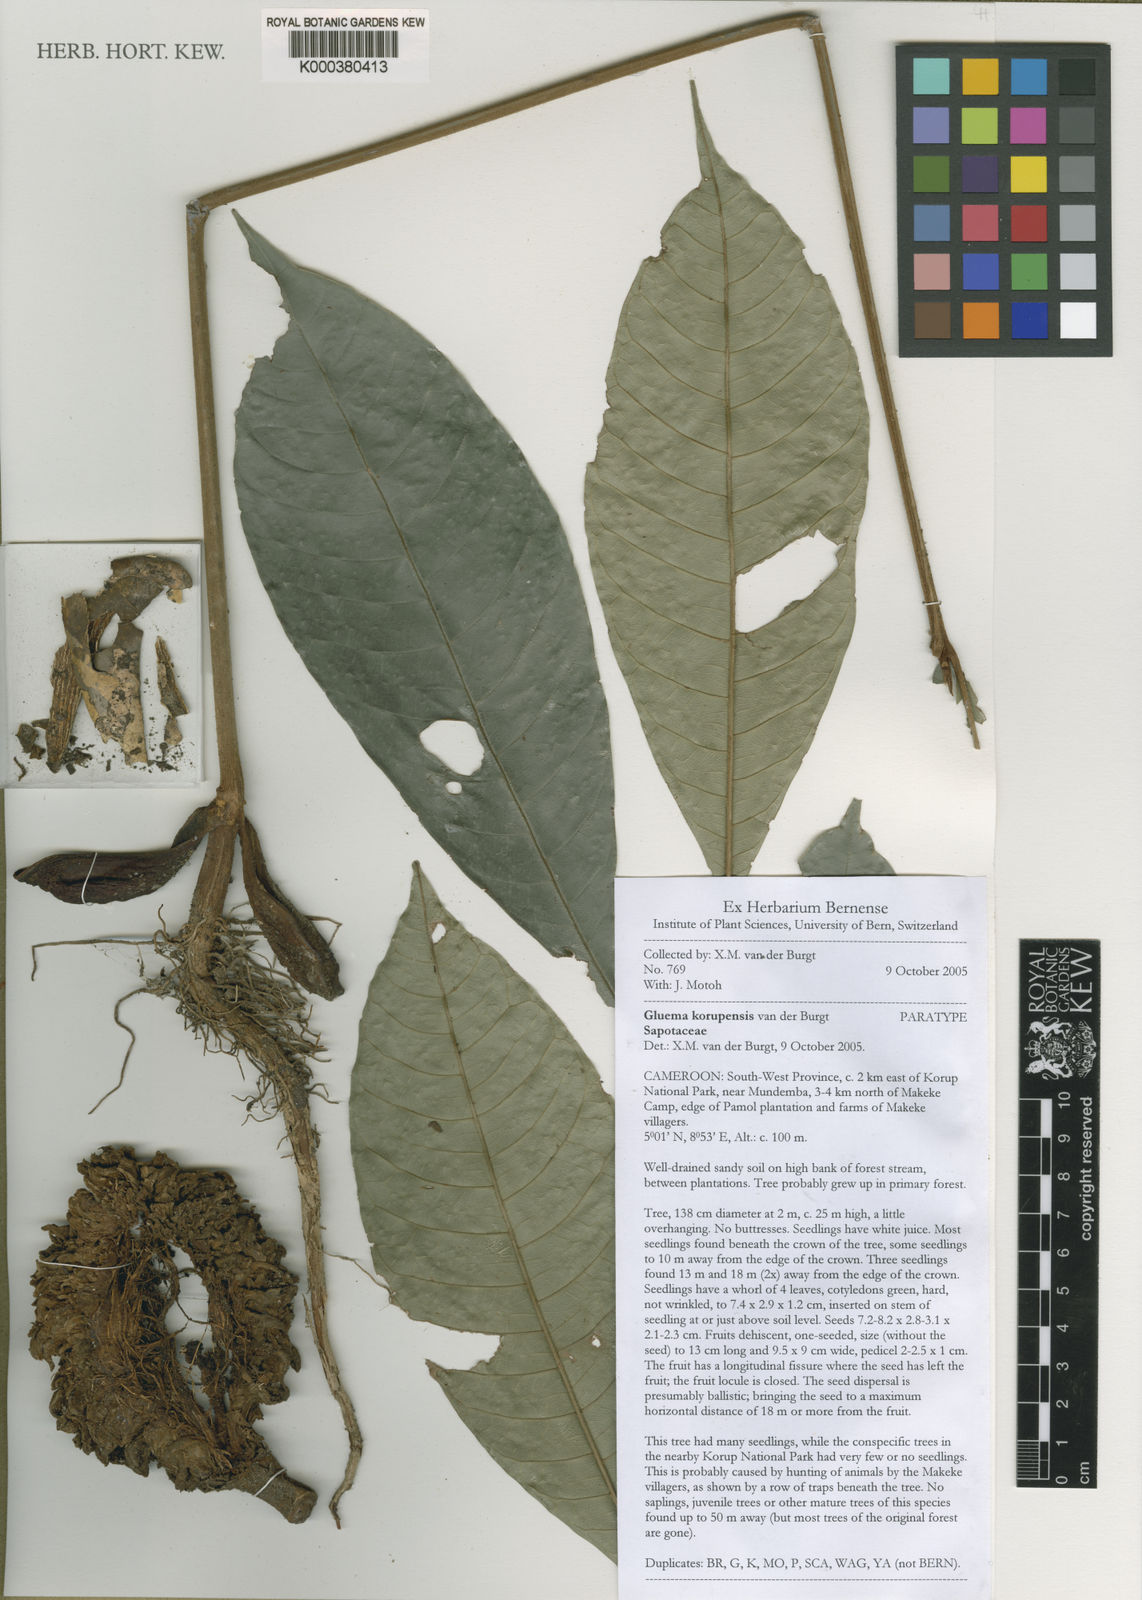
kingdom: Plantae
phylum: Tracheophyta
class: Magnoliopsida
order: Ericales
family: Sapotaceae
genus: Gluema
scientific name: Gluema korupensis
